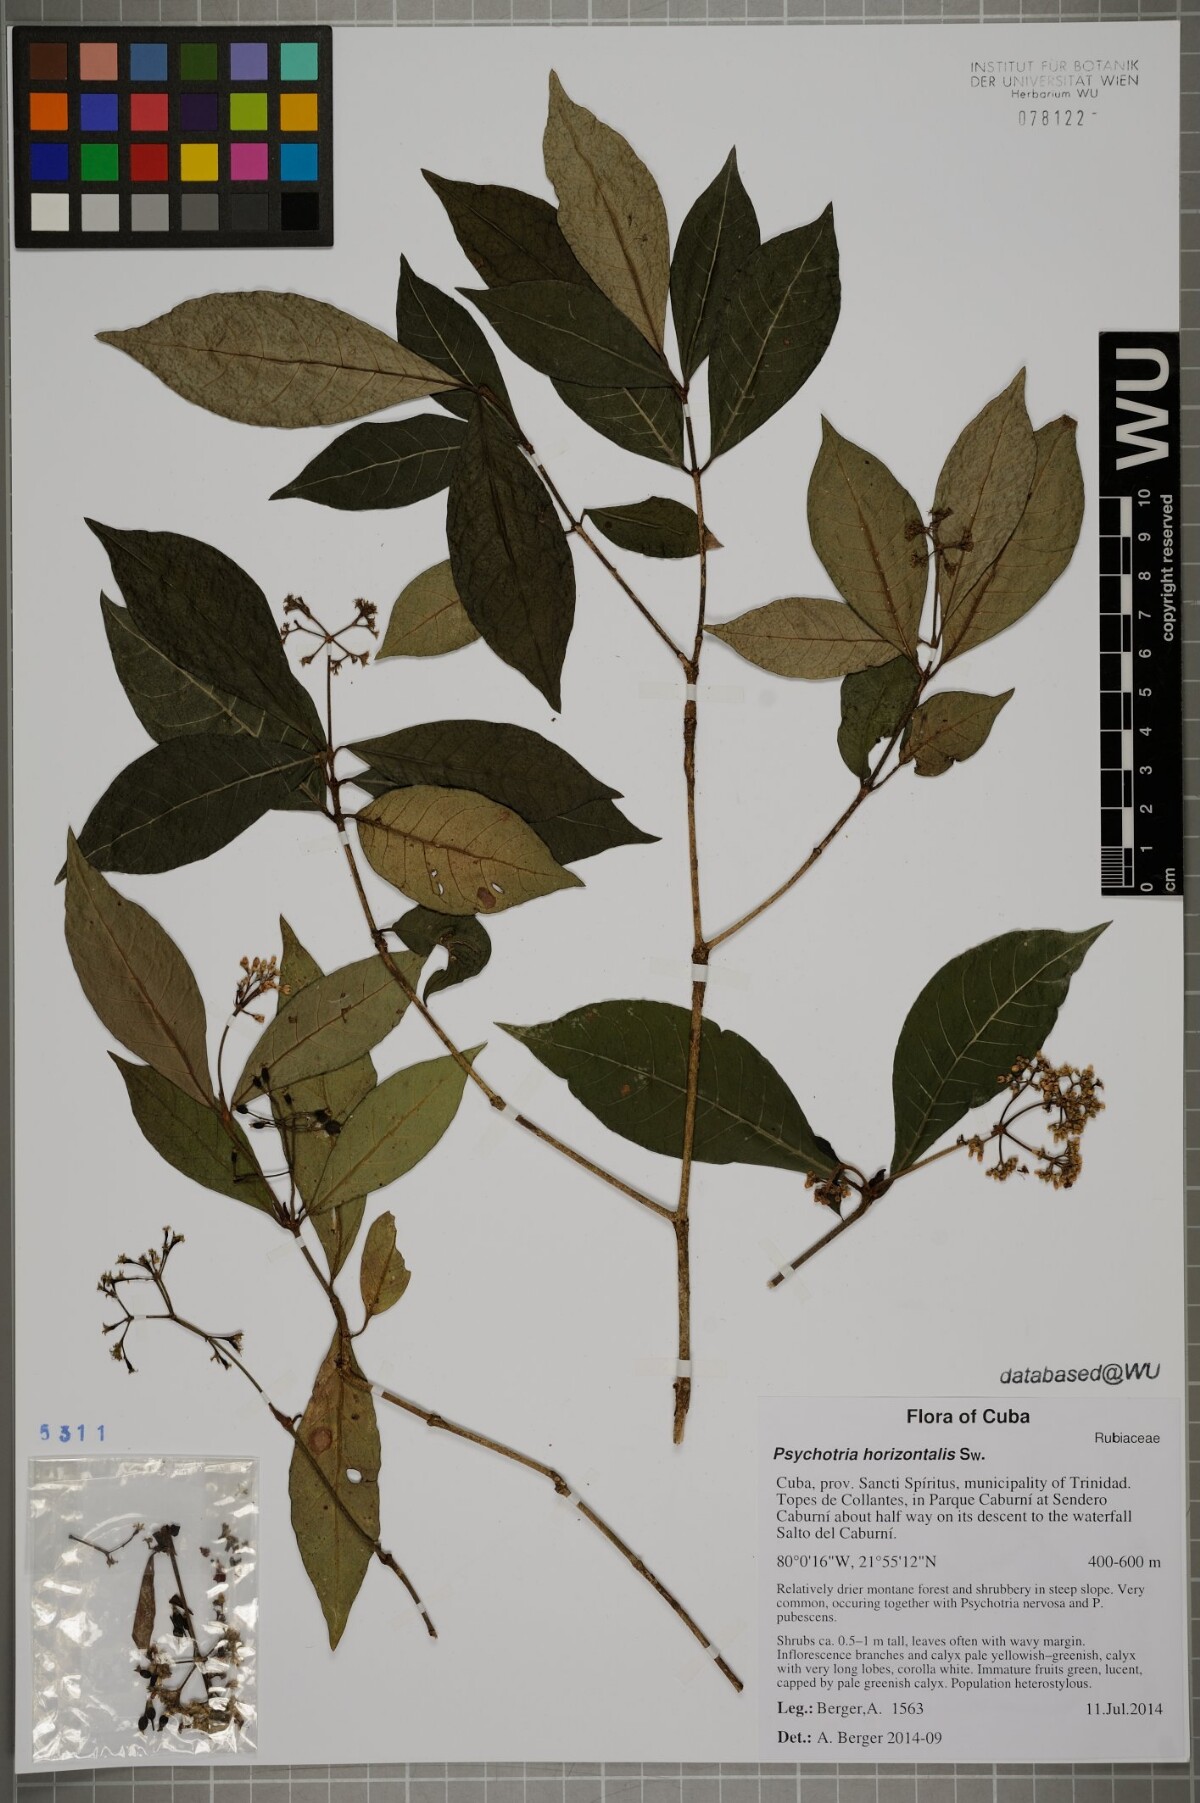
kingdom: Plantae
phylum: Tracheophyta
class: Magnoliopsida
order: Gentianales
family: Rubiaceae
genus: Psychotria
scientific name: Psychotria horizontalis
